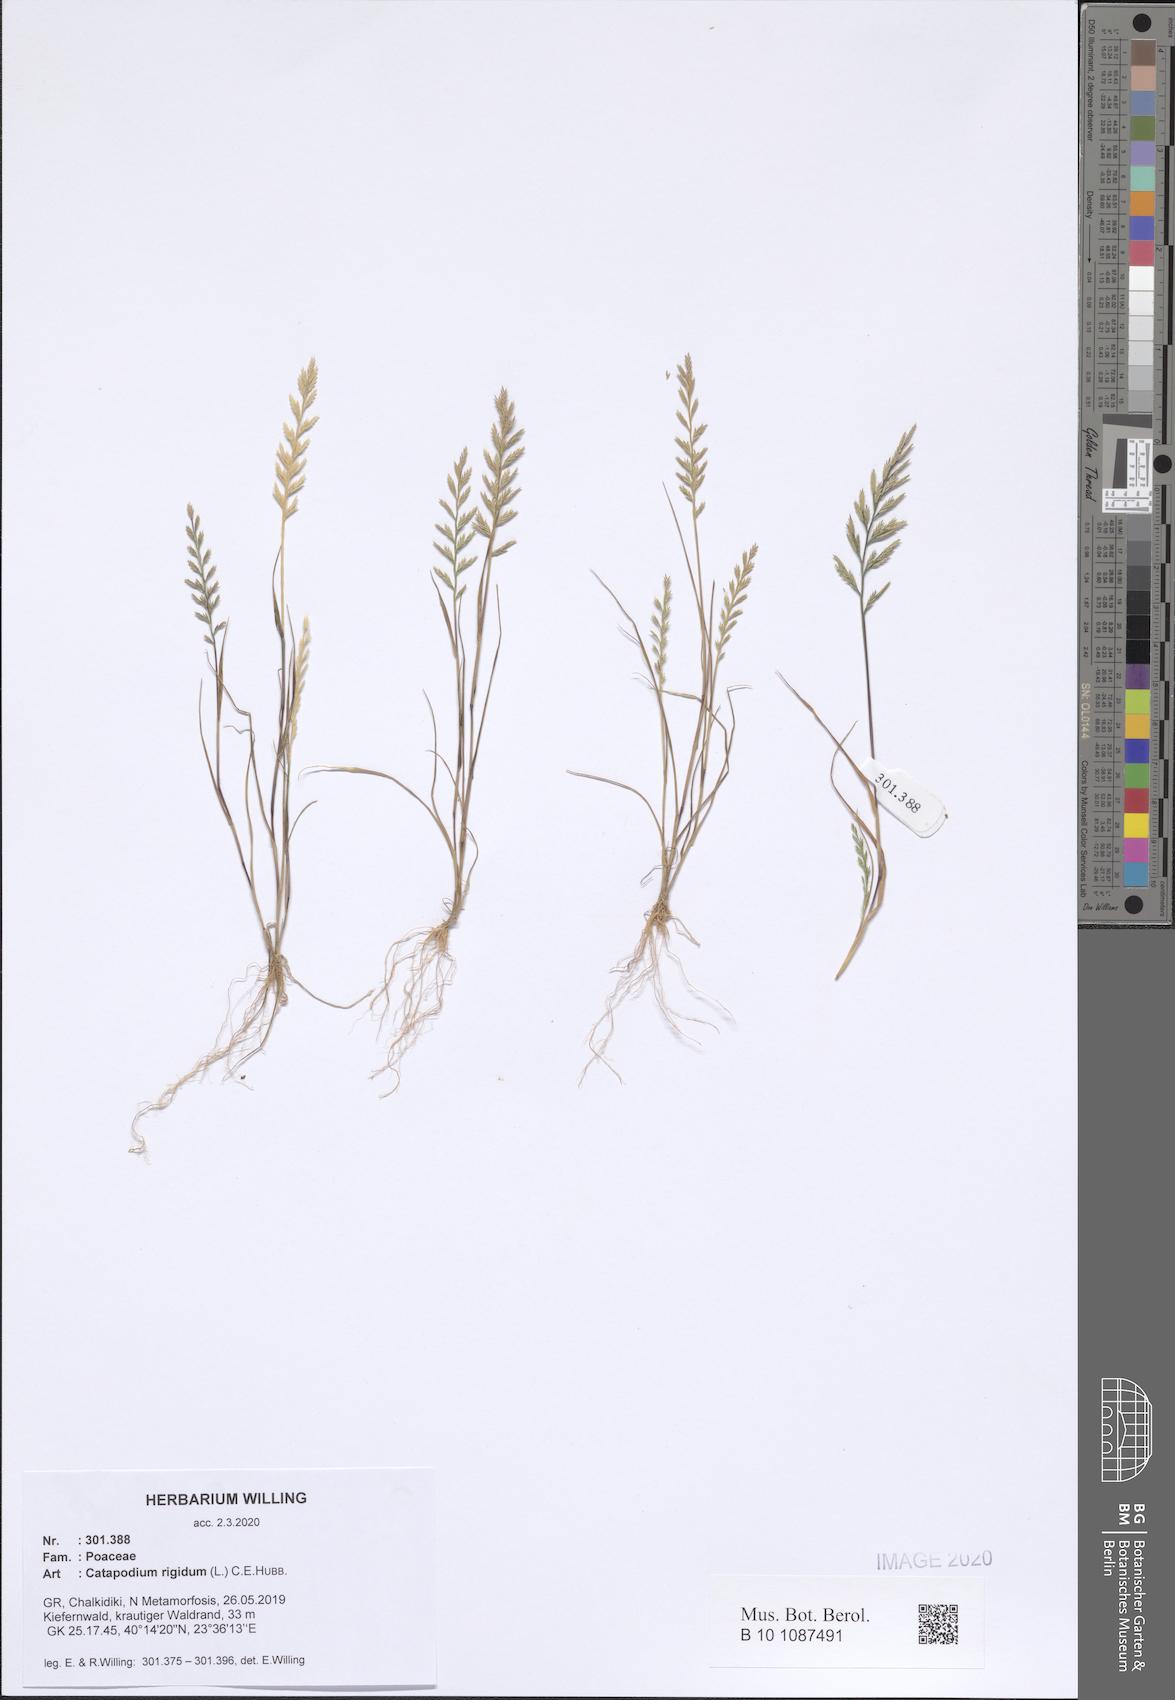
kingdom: Plantae
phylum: Tracheophyta
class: Liliopsida
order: Poales
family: Poaceae
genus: Catapodium
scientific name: Catapodium rigidum
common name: Fern-grass
